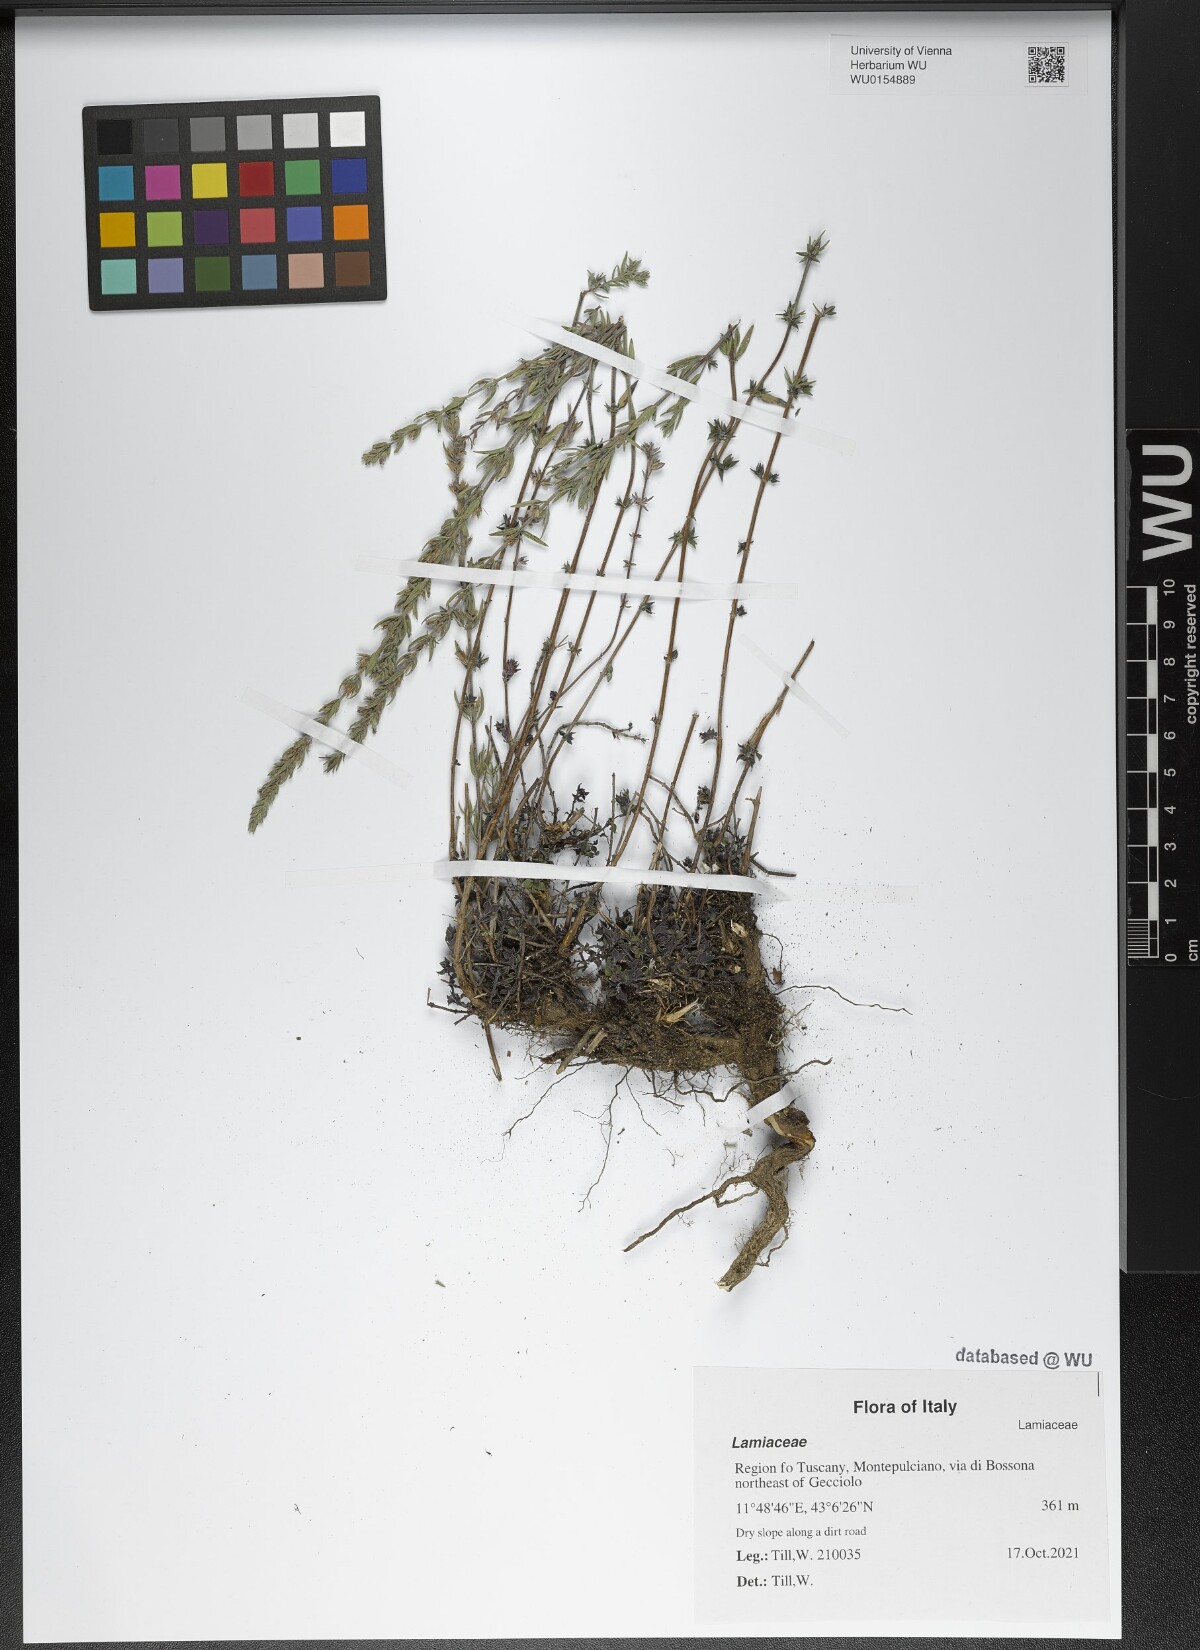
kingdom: Plantae
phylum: Tracheophyta
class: Magnoliopsida
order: Lamiales
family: Lamiaceae
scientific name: Lamiaceae
